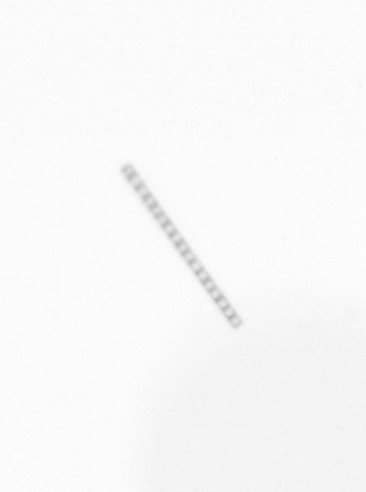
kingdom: Chromista
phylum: Ochrophyta
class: Bacillariophyceae
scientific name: Bacillariophyceae
